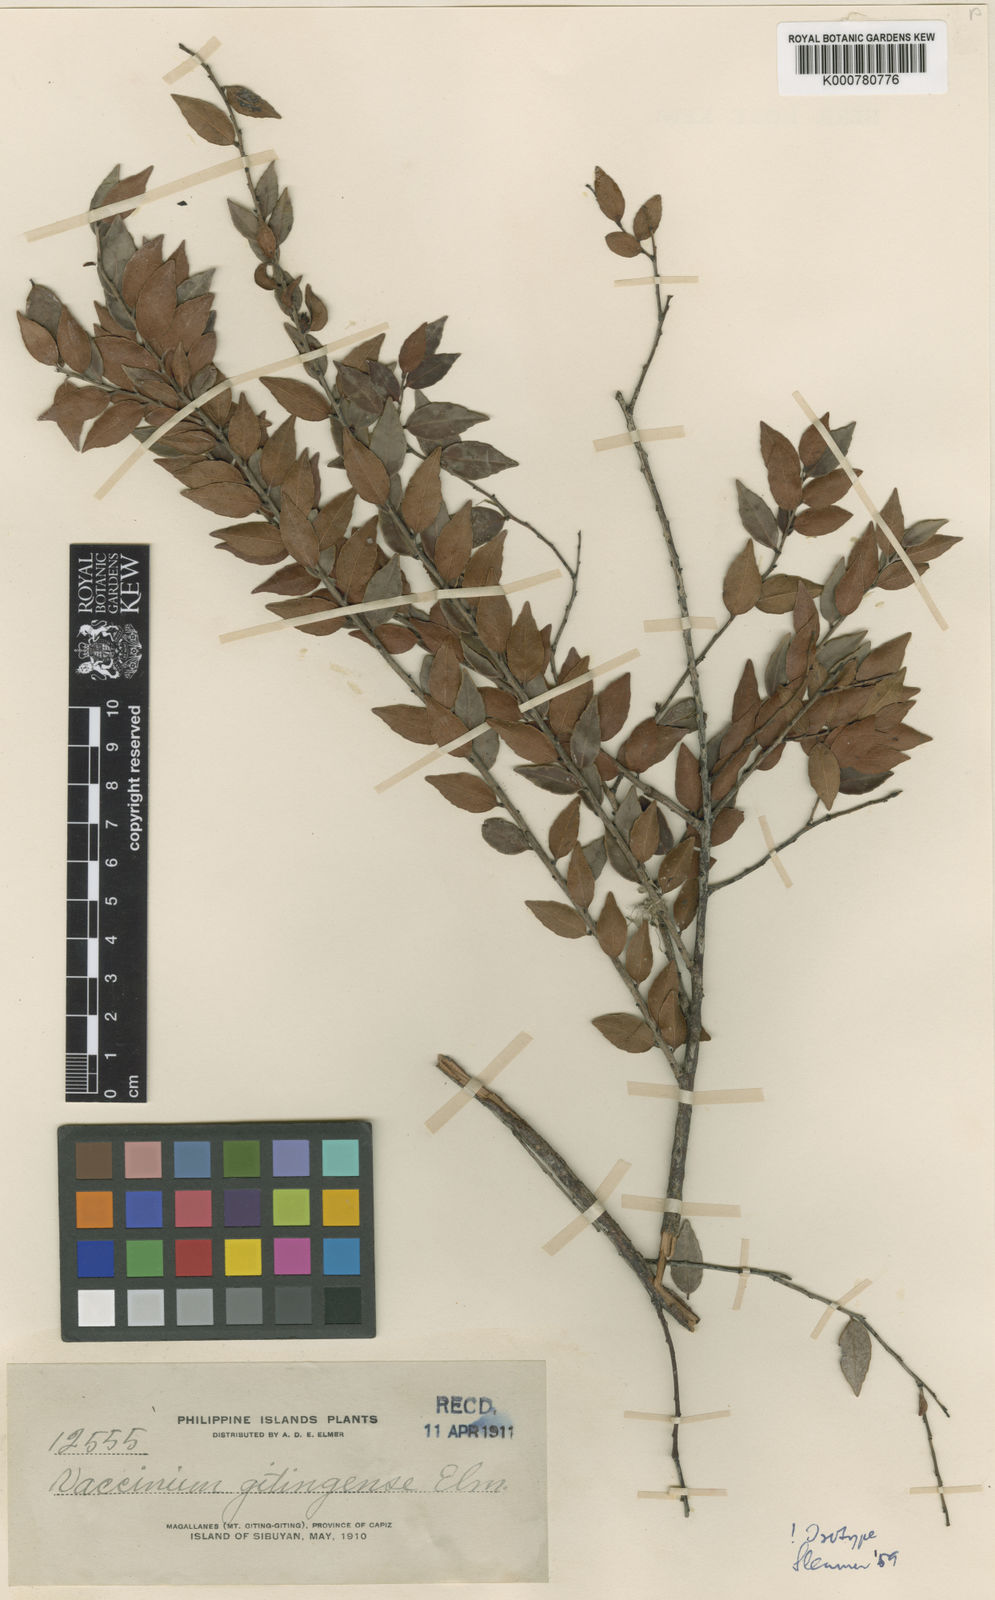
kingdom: Plantae
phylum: Tracheophyta
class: Magnoliopsida
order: Ericales
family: Ericaceae
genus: Vaccinium
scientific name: Vaccinium gitingense
